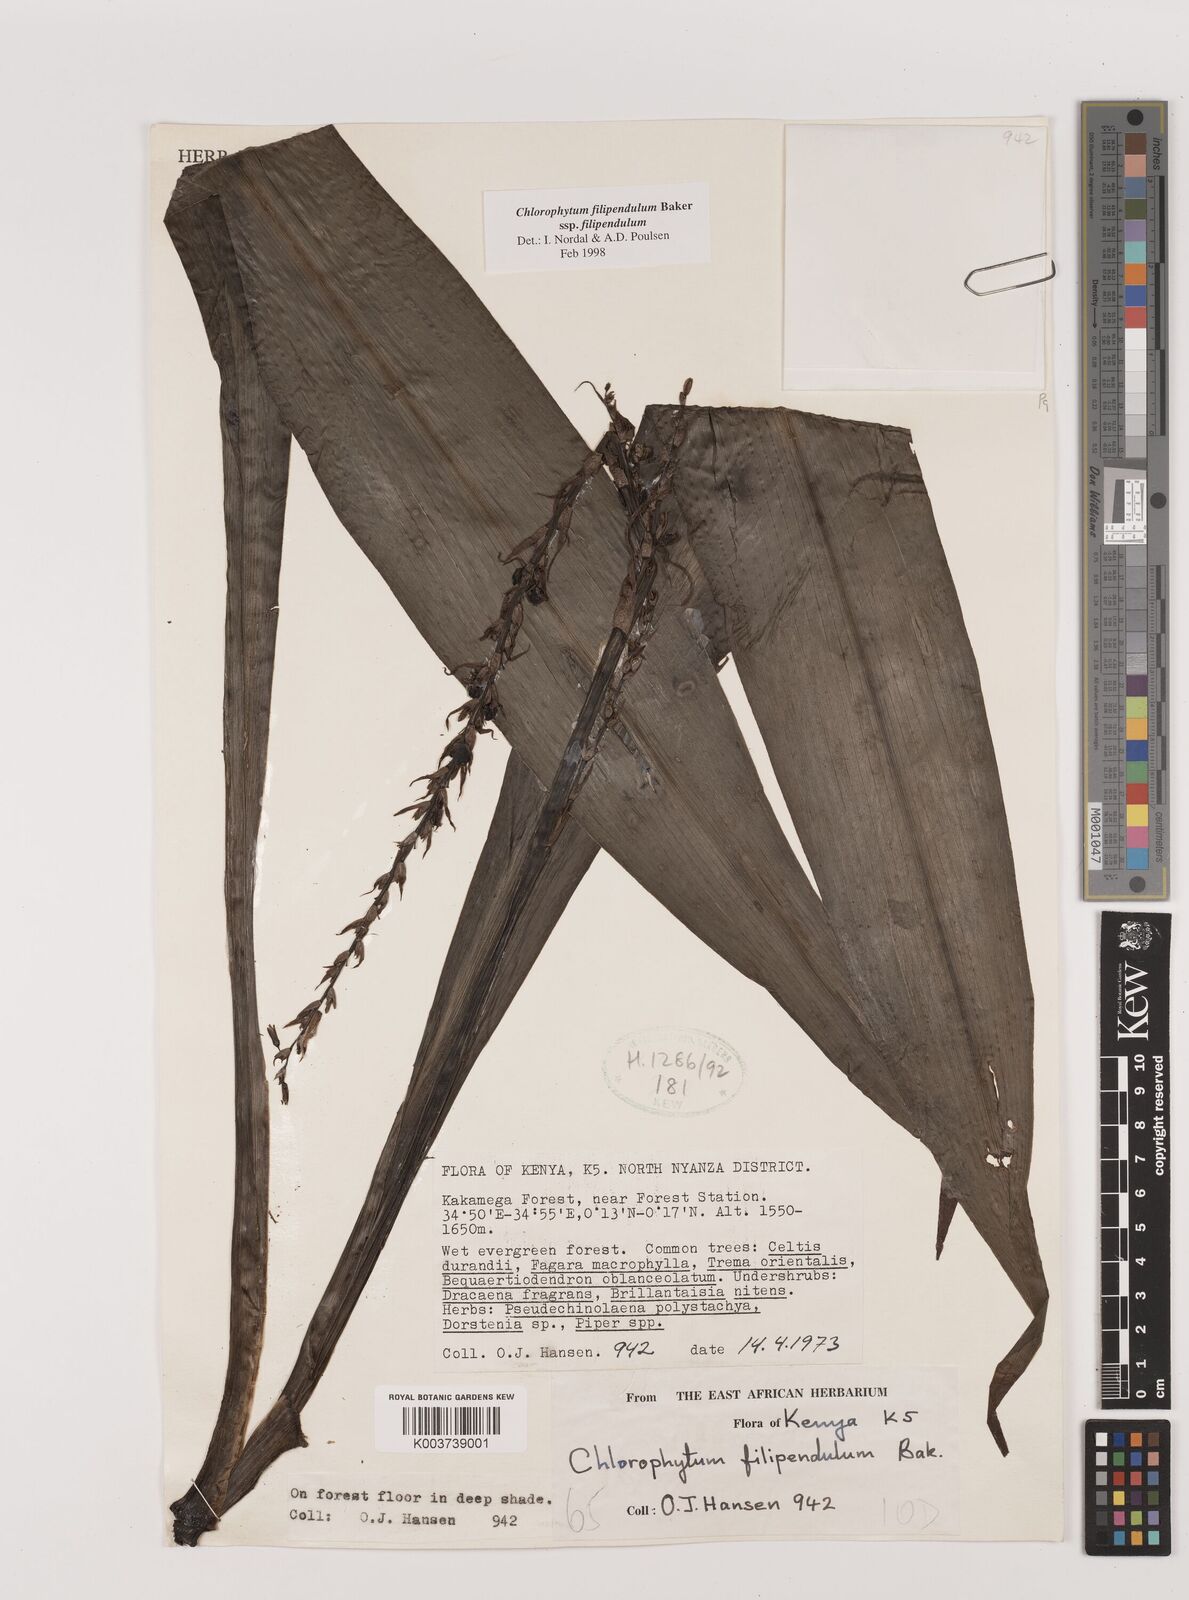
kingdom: Plantae
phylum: Tracheophyta
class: Liliopsida
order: Asparagales
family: Asparagaceae
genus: Chlorophytum
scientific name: Chlorophytum filipendulum
